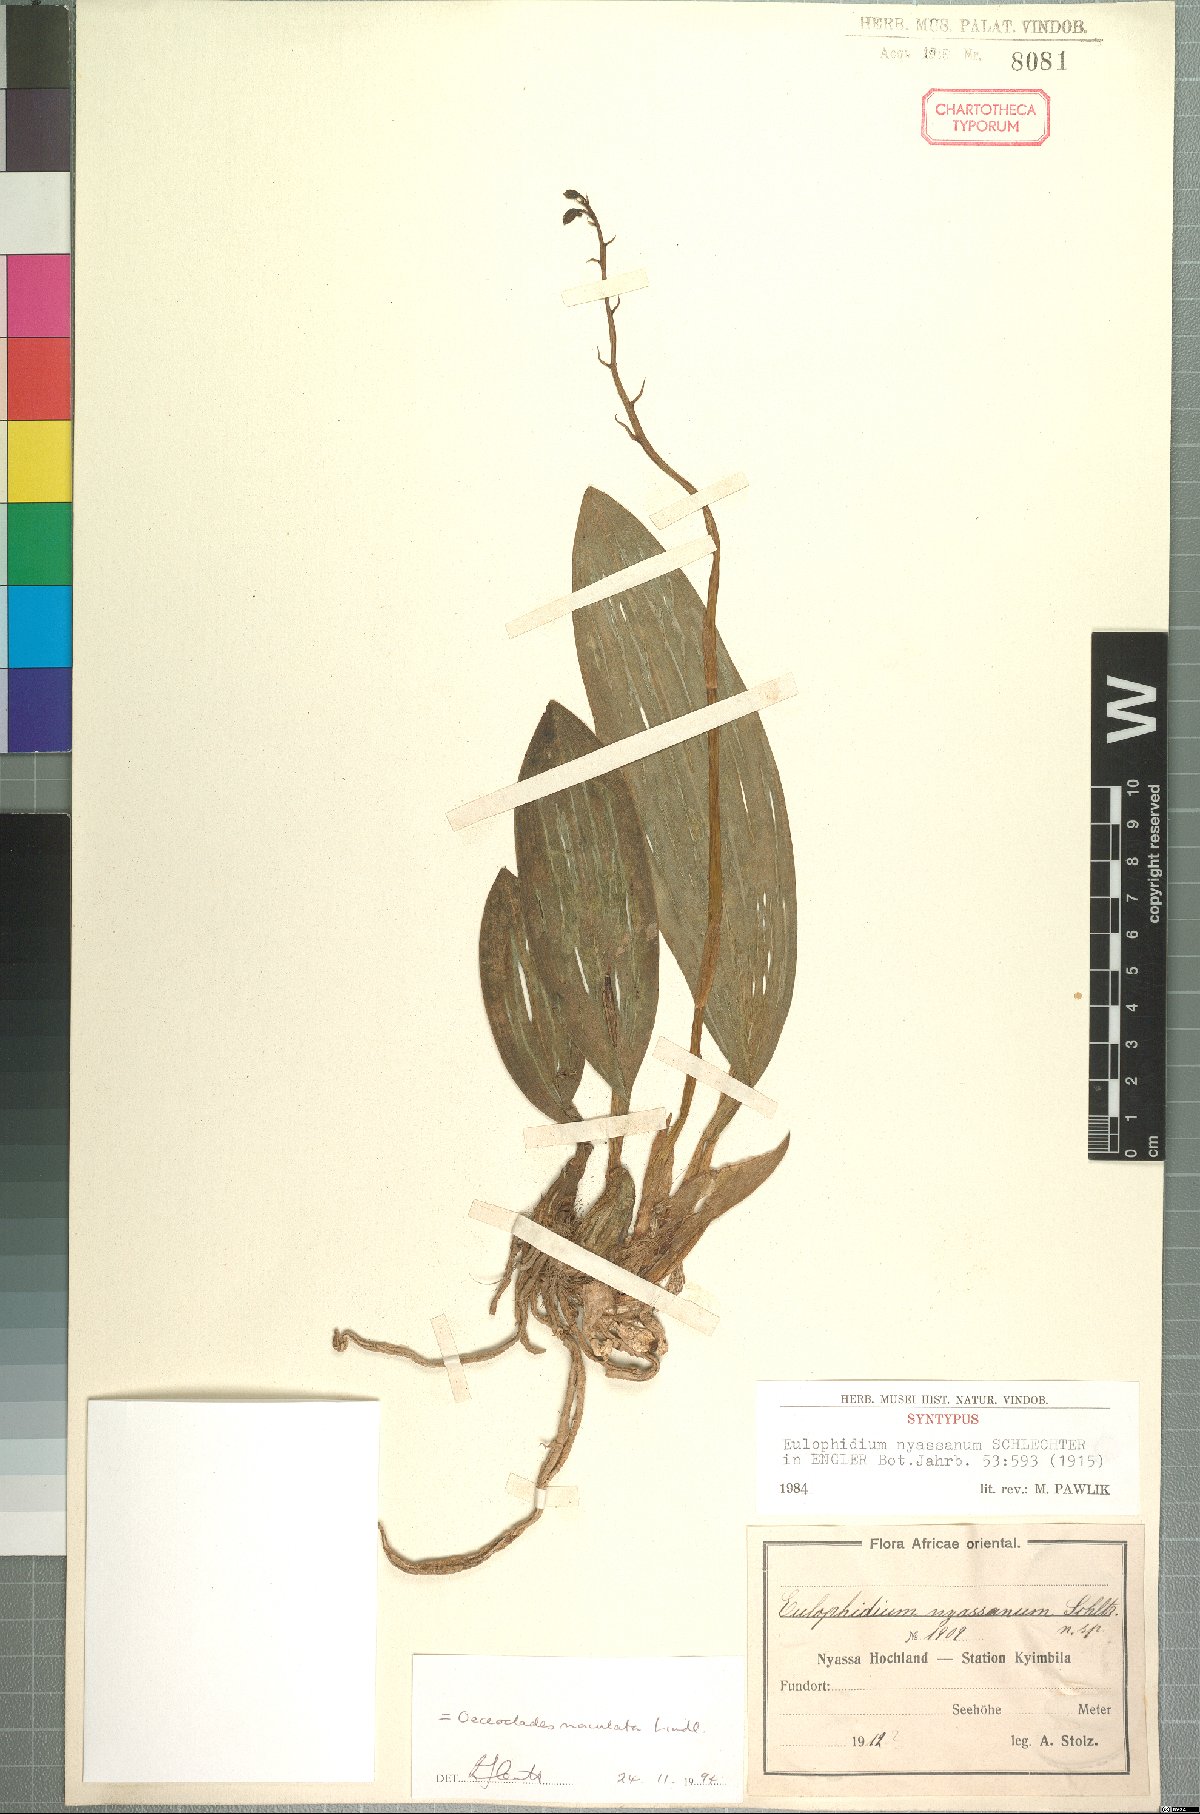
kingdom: Plantae
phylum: Tracheophyta
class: Liliopsida
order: Asparagales
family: Orchidaceae
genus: Eulophia
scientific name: Eulophia maculata
